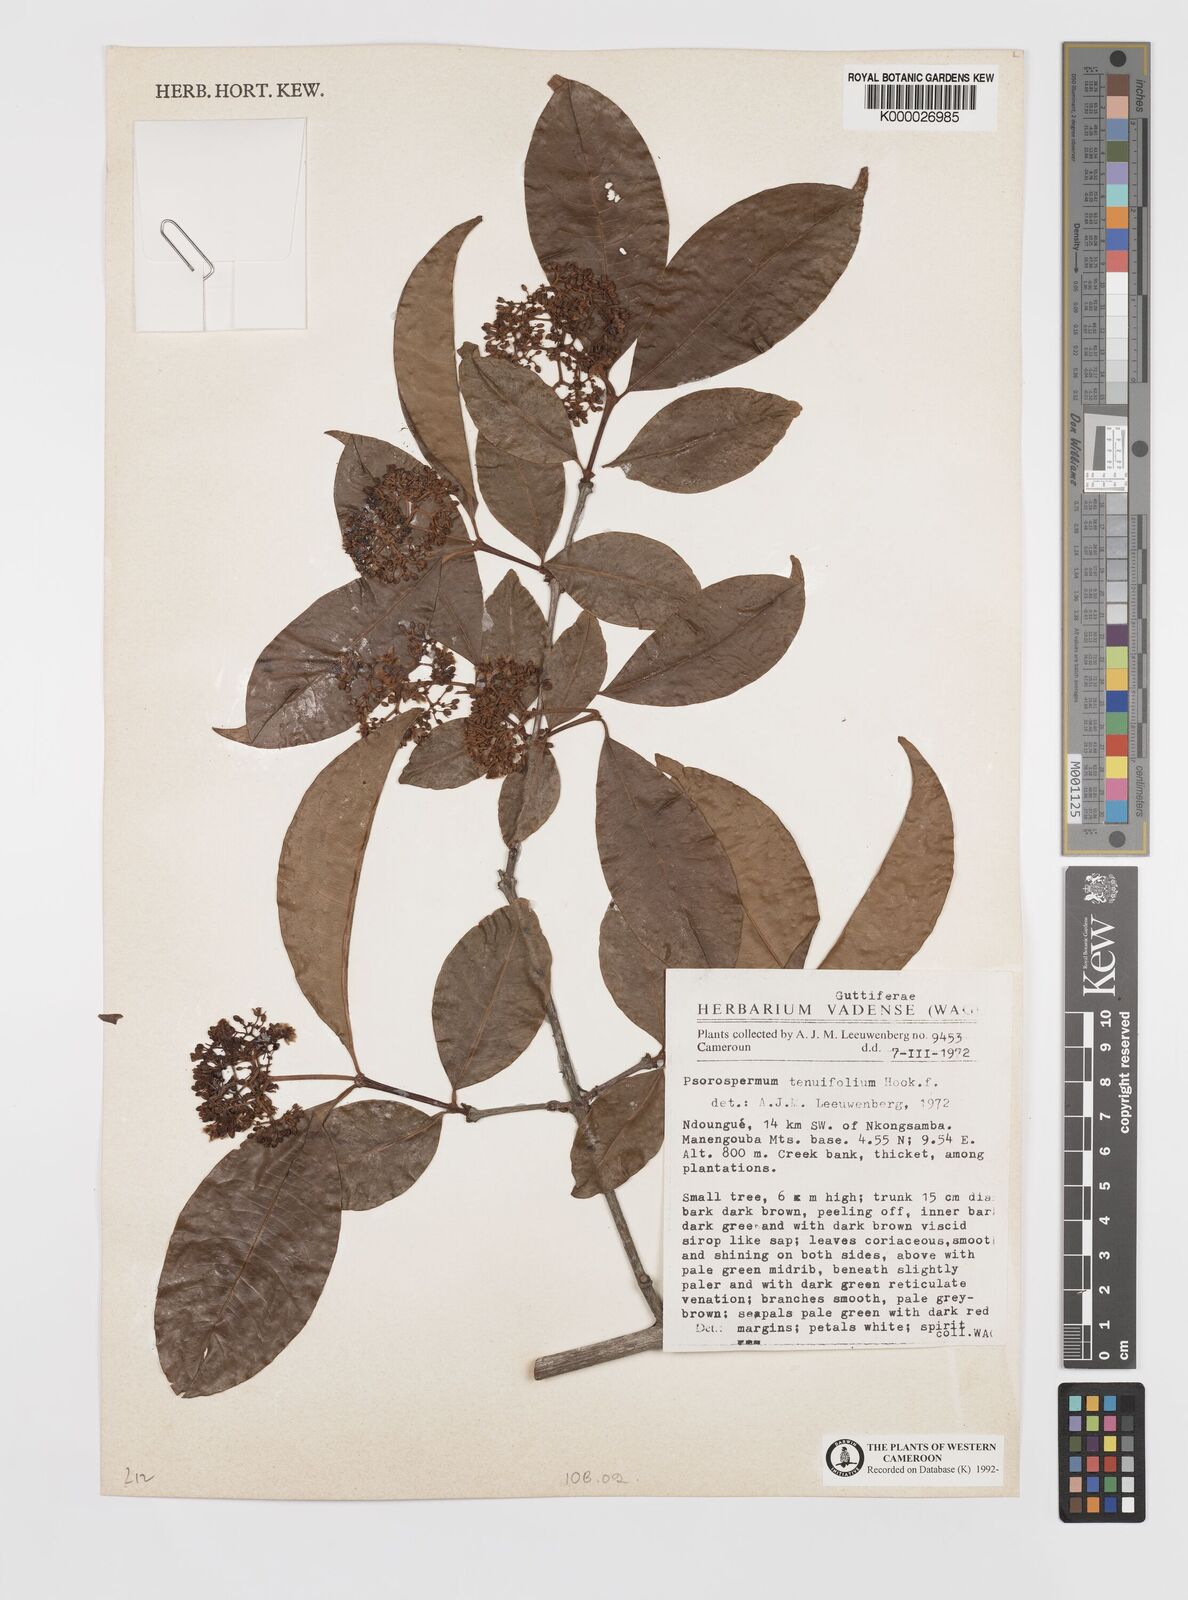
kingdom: Plantae
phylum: Tracheophyta
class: Magnoliopsida
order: Malpighiales
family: Hypericaceae
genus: Psorospermum
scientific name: Psorospermum tenuifolium
